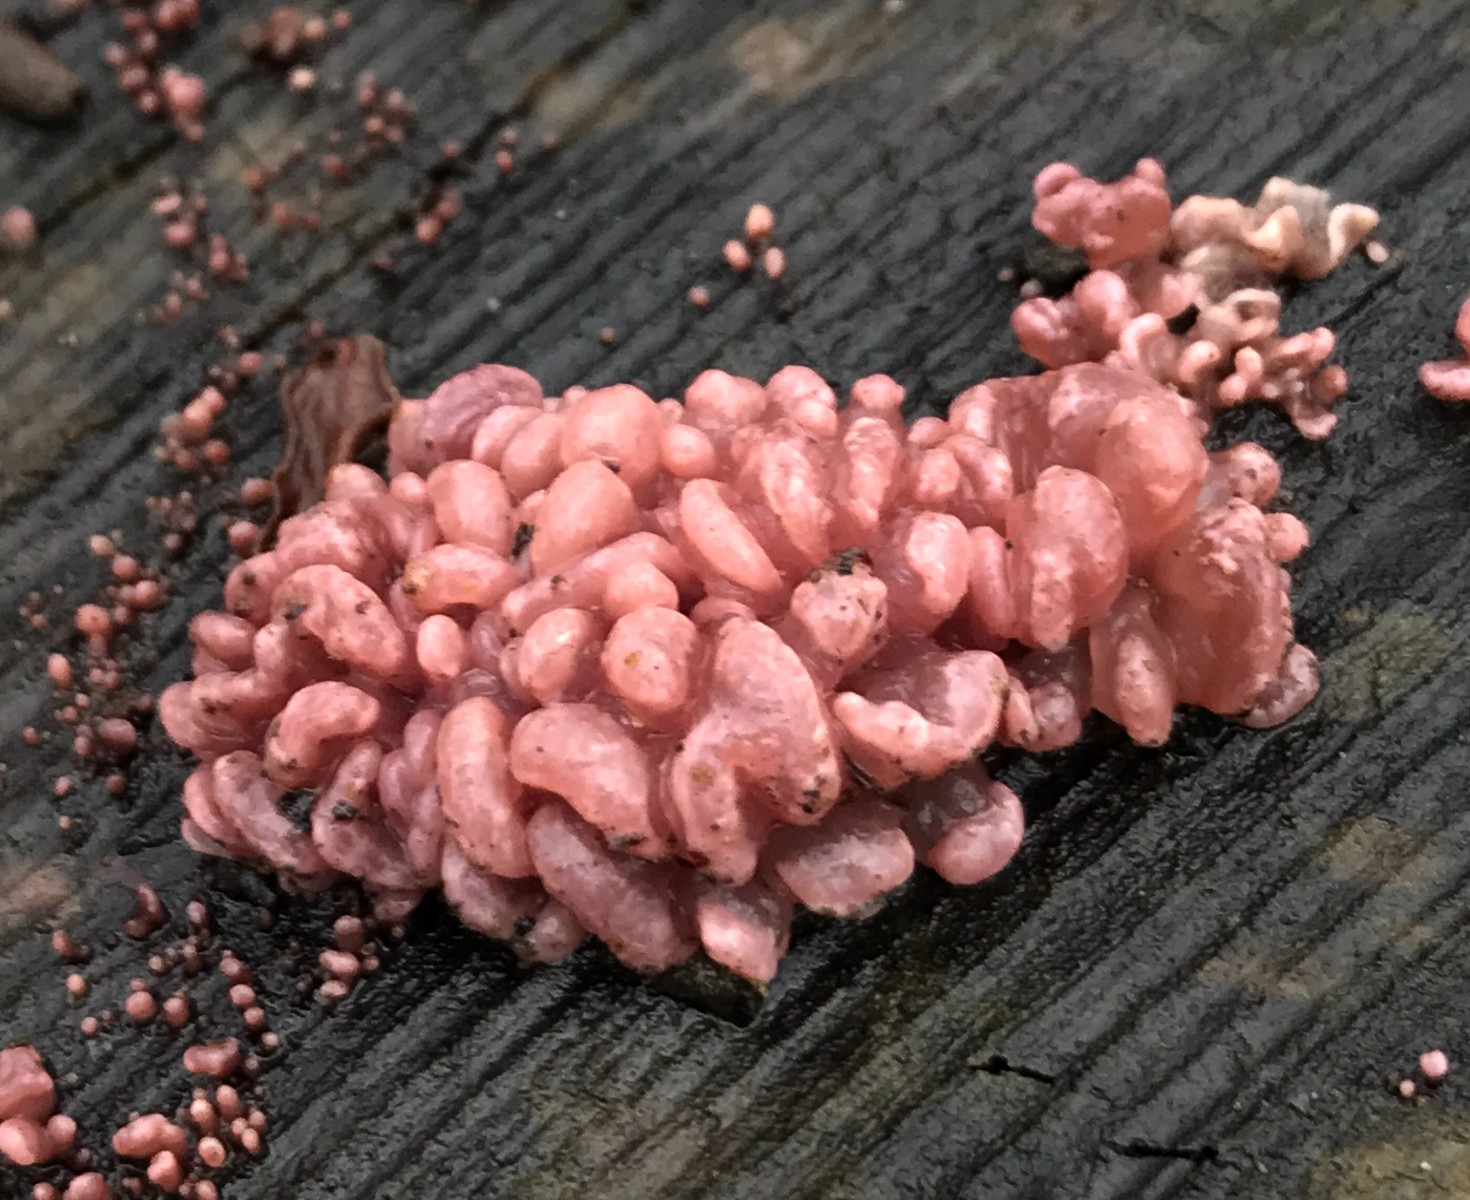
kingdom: Fungi
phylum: Ascomycota
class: Leotiomycetes
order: Helotiales
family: Gelatinodiscaceae
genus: Ascocoryne
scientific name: Ascocoryne sarcoides
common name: rødlilla sejskive
